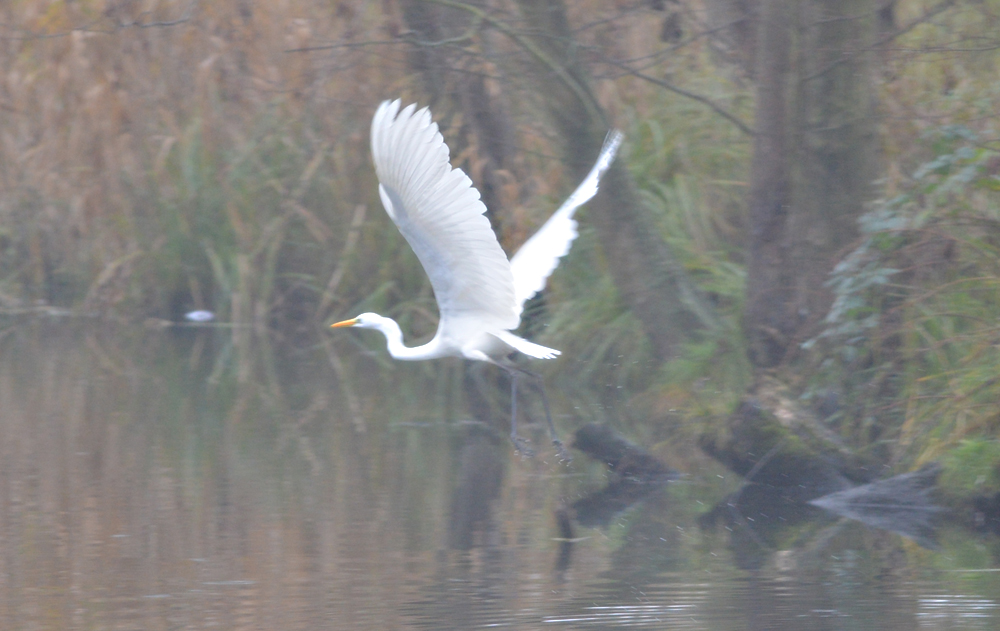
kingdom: Animalia
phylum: Chordata
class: Aves
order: Pelecaniformes
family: Ardeidae
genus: Ardea
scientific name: Ardea alba
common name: Great egret
